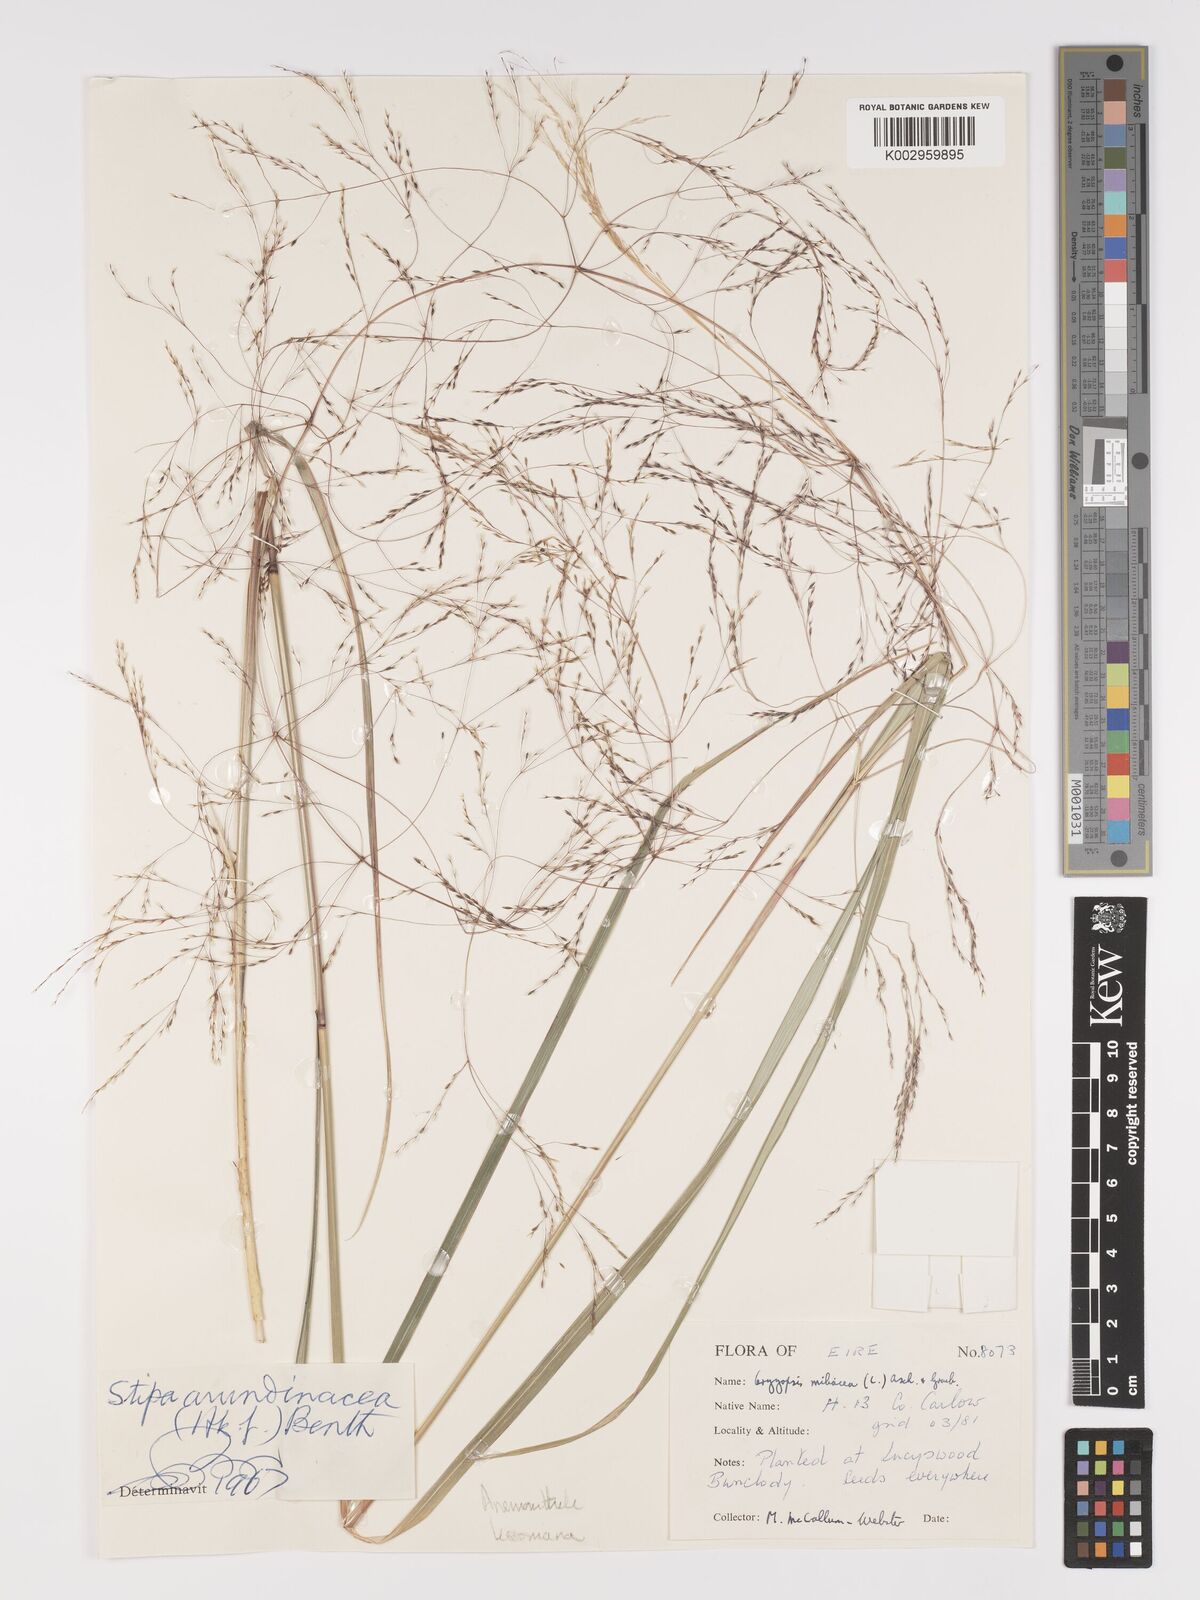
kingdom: Plantae
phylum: Tracheophyta
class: Liliopsida
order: Poales
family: Poaceae
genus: Stipa
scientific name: Stipa
